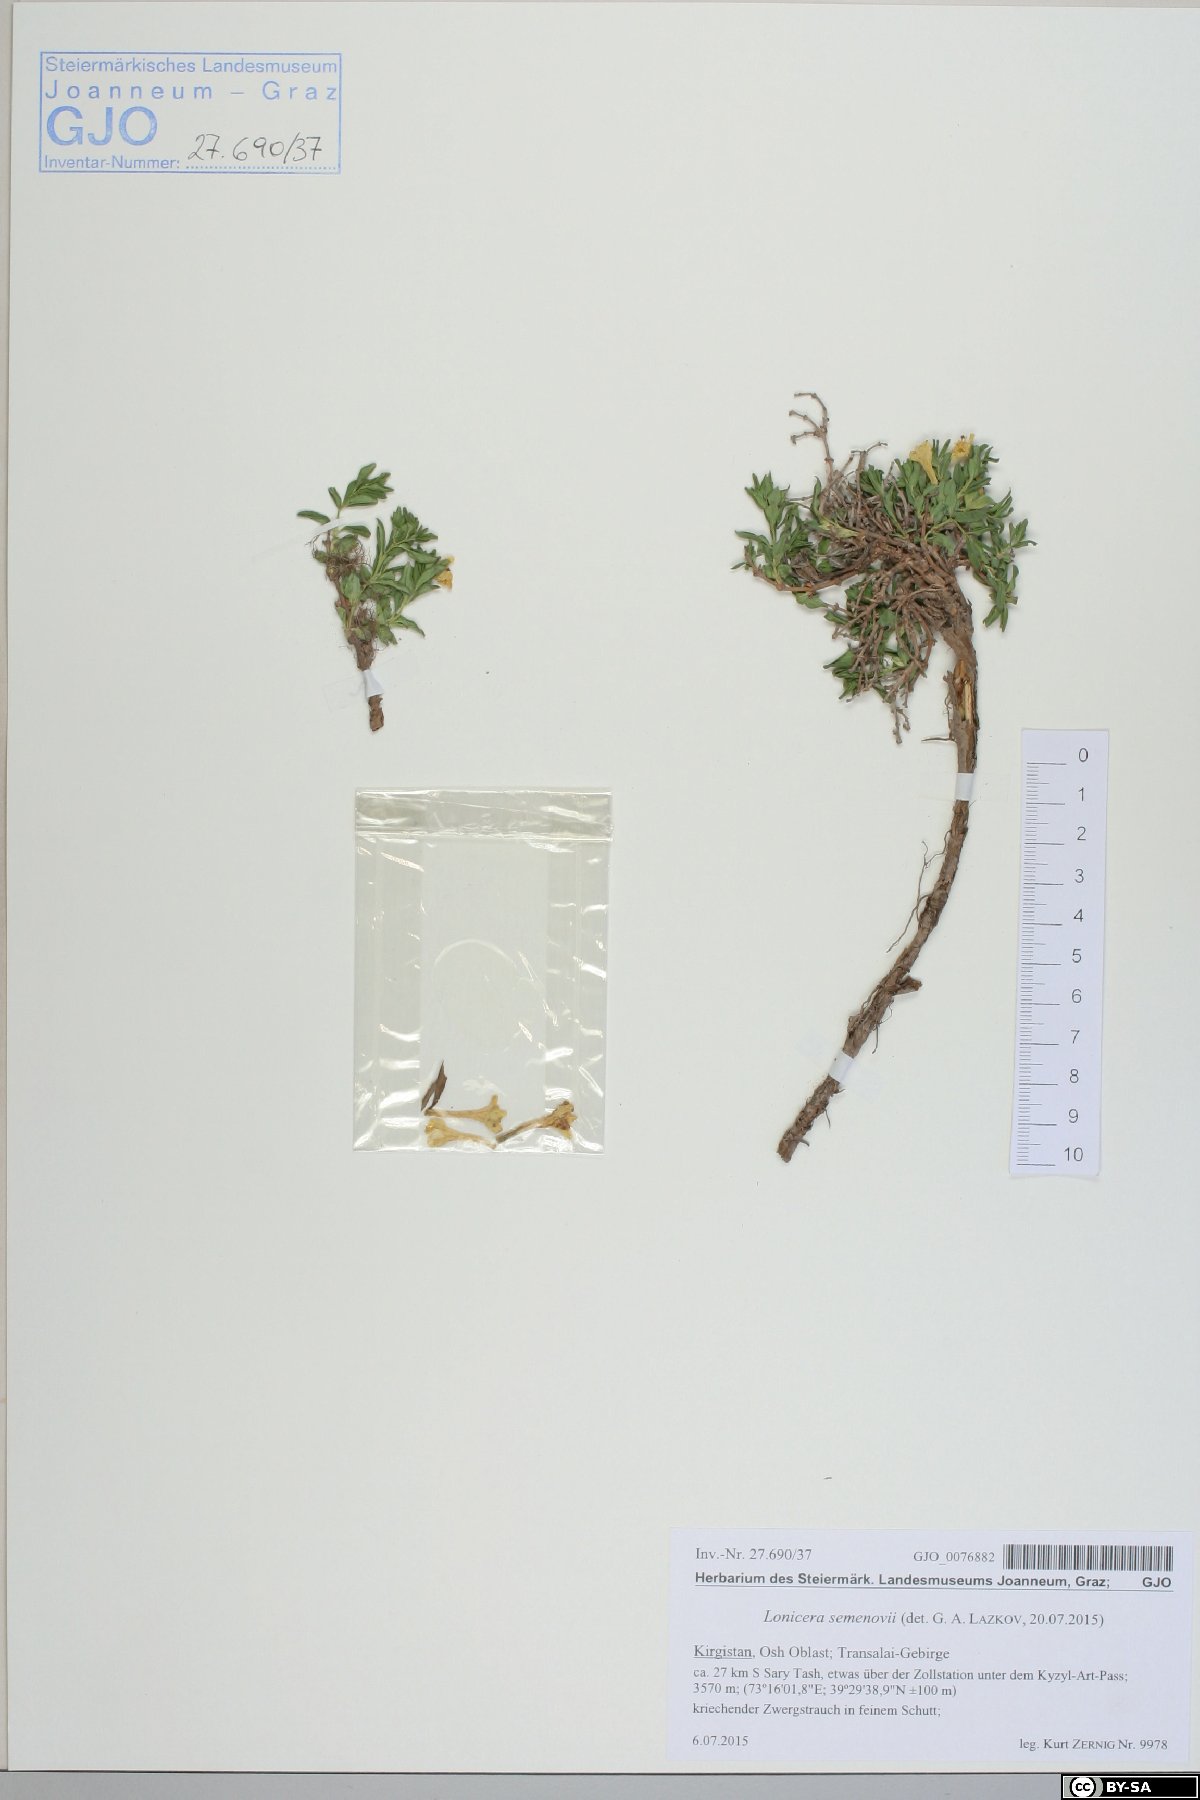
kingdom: Plantae
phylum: Tracheophyta
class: Magnoliopsida
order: Dipsacales
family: Caprifoliaceae
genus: Lonicera
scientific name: Lonicera semenovii
